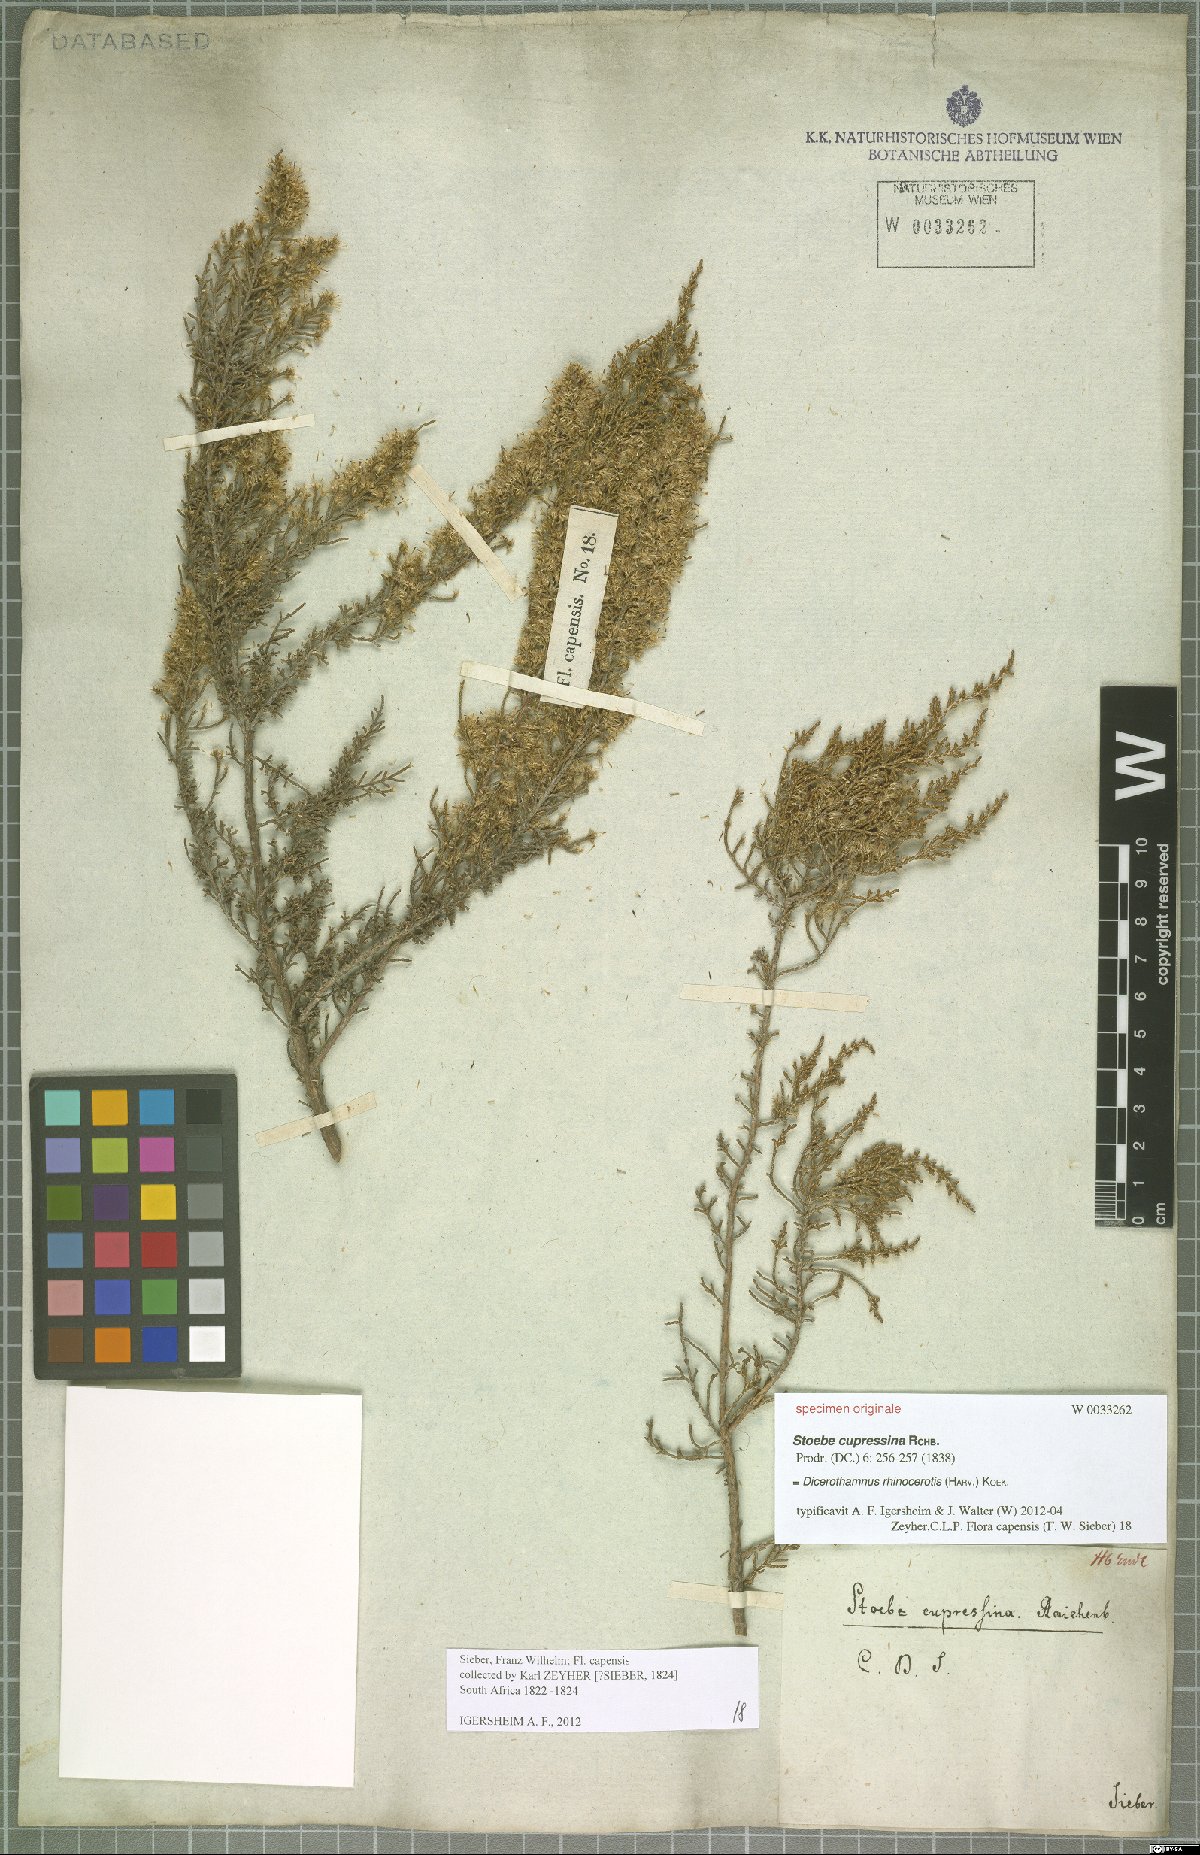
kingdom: Plantae
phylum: Tracheophyta
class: Magnoliopsida
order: Asterales
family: Asteraceae
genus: Dicerothamnus
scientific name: Dicerothamnus rhinocerotis
